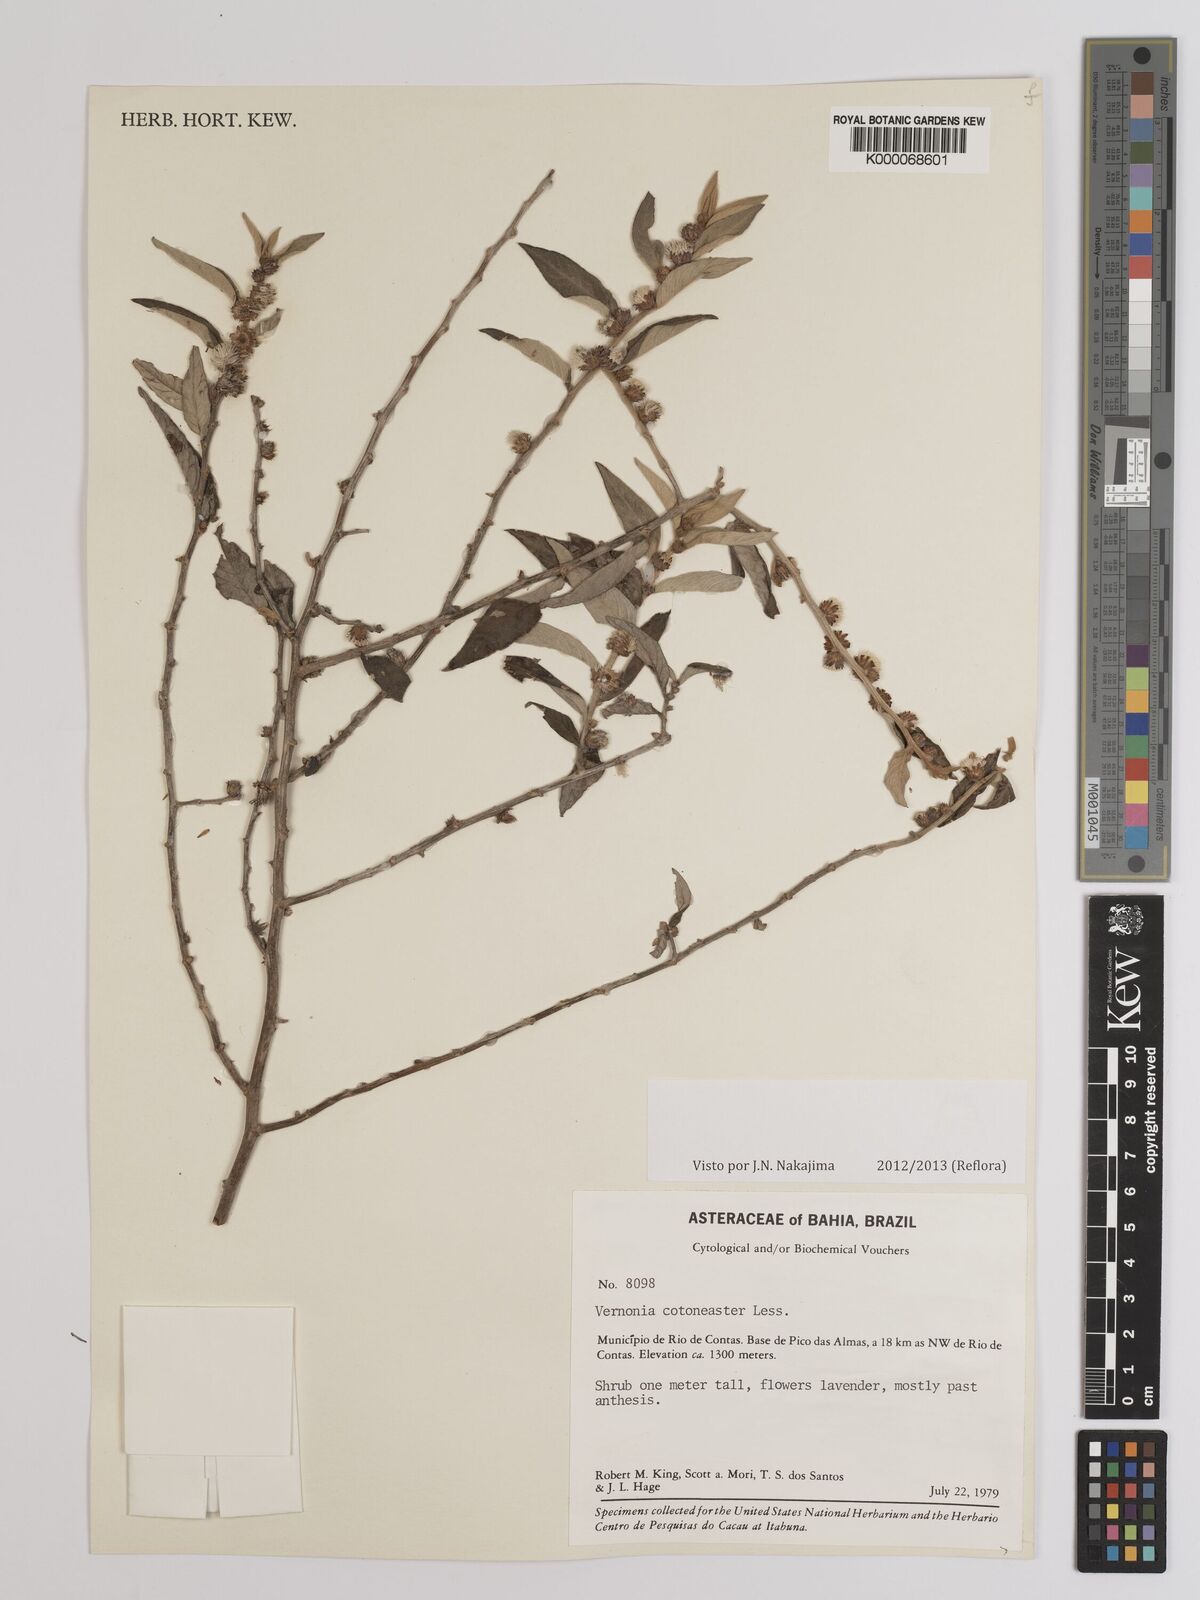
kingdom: Plantae
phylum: Tracheophyta
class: Magnoliopsida
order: Asterales
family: Asteraceae
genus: Lepidaploa
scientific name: Lepidaploa cotoneaster
